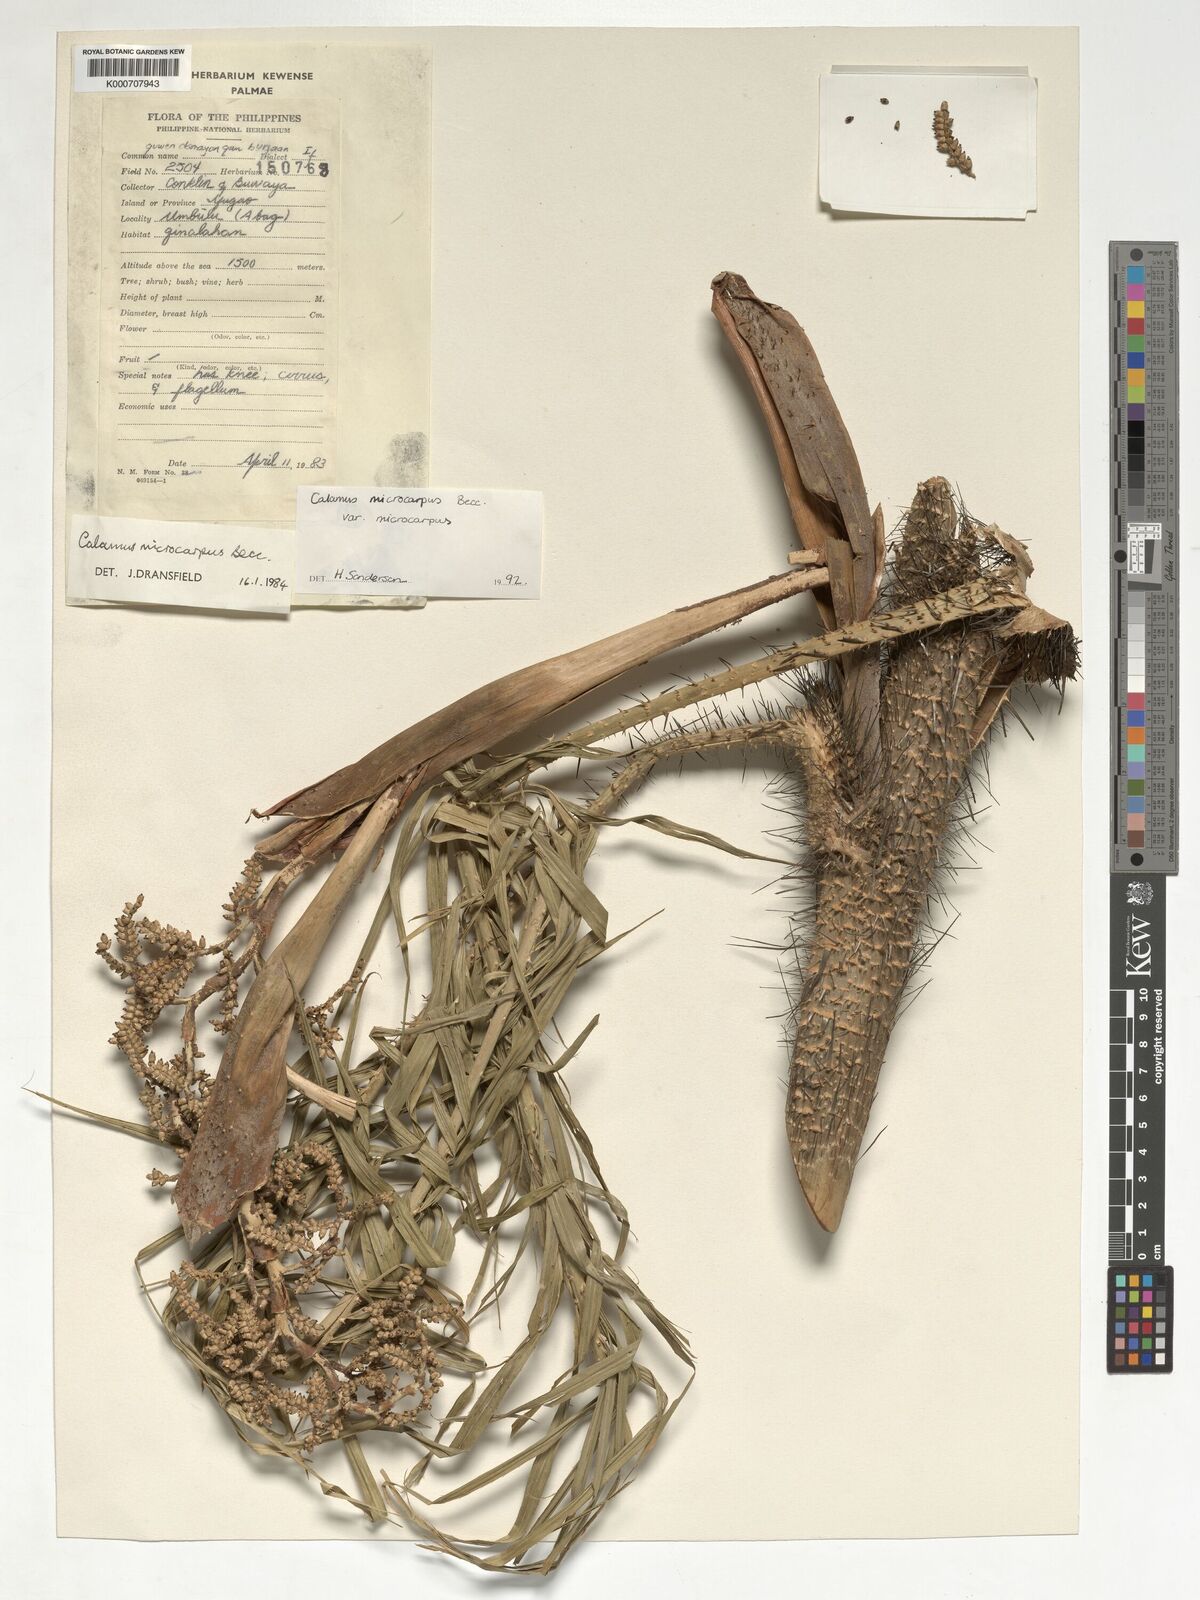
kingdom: Plantae
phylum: Tracheophyta
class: Liliopsida
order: Arecales
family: Arecaceae
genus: Calamus
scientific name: Calamus siphonospathus
